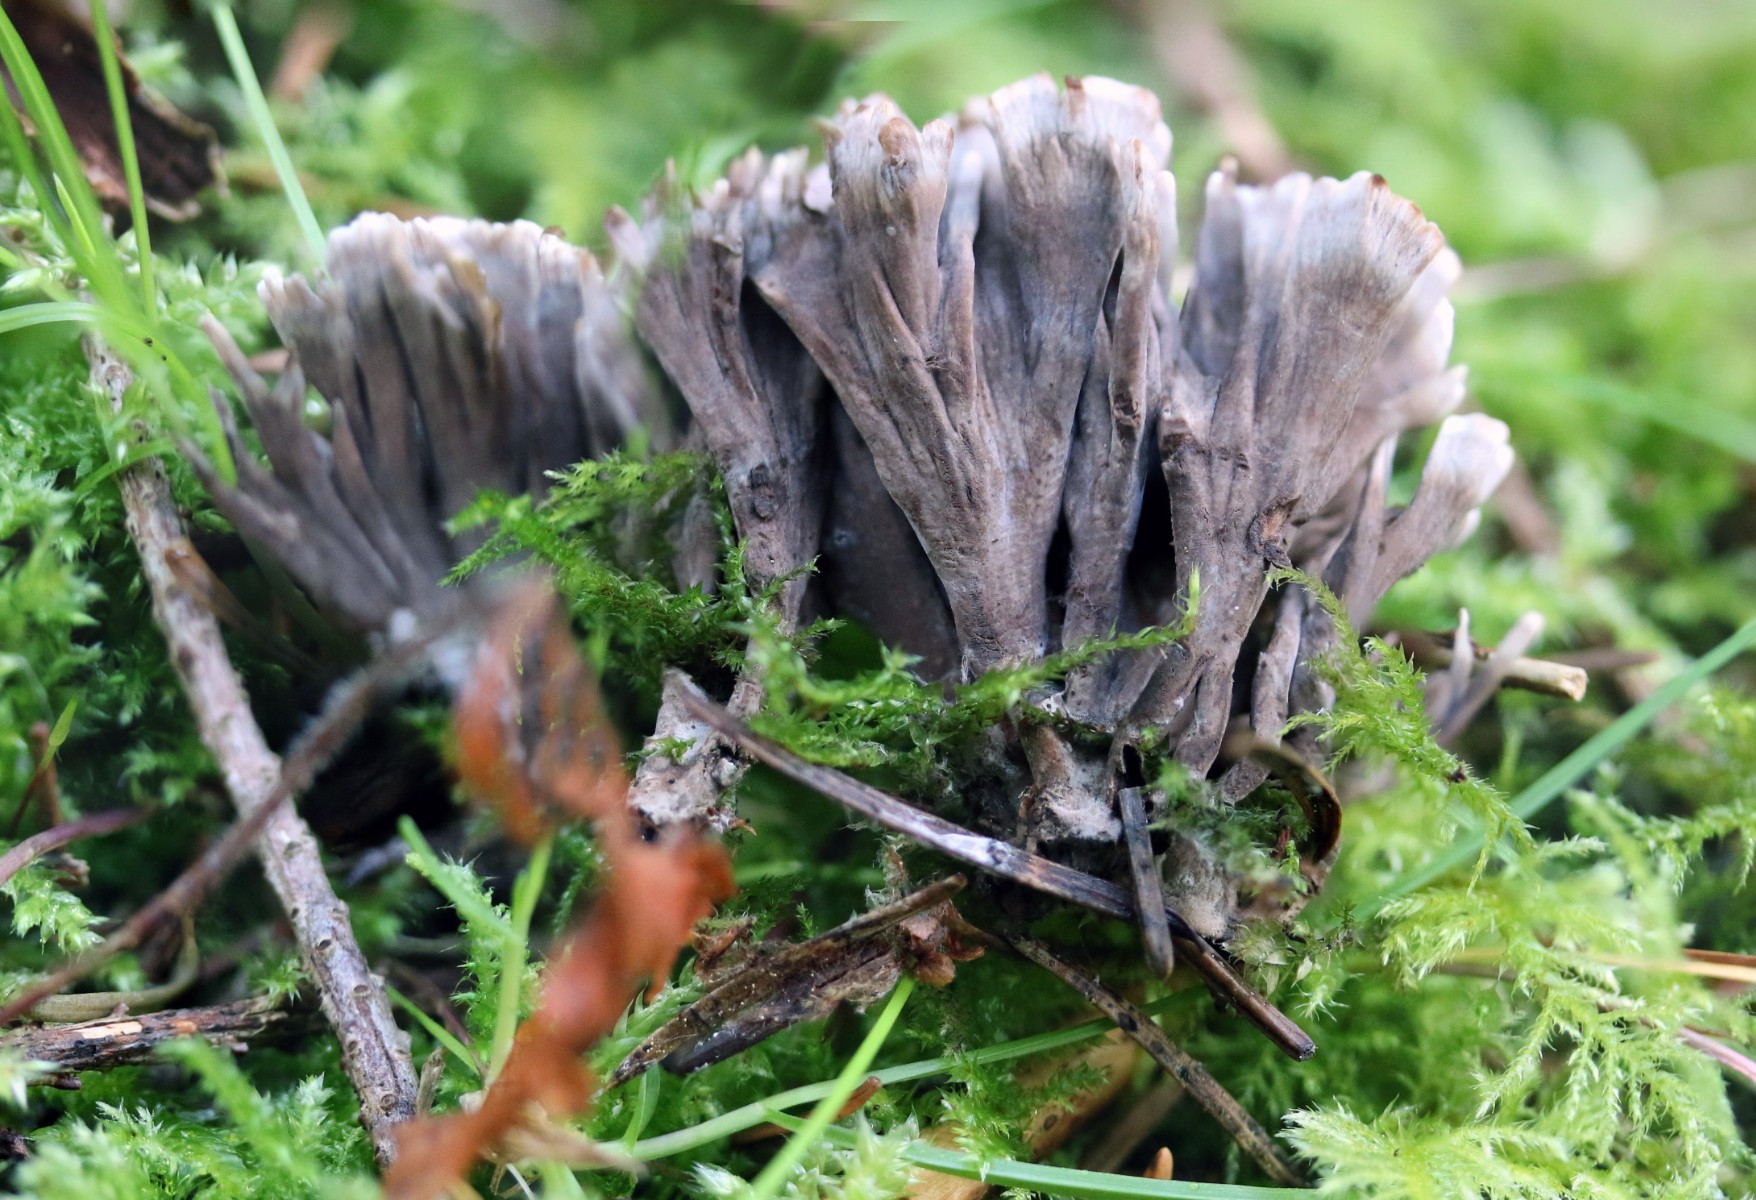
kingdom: Fungi
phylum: Basidiomycota
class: Agaricomycetes
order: Thelephorales
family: Thelephoraceae
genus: Thelephora
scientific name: Thelephora palmata
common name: grenet frynsesvamp
